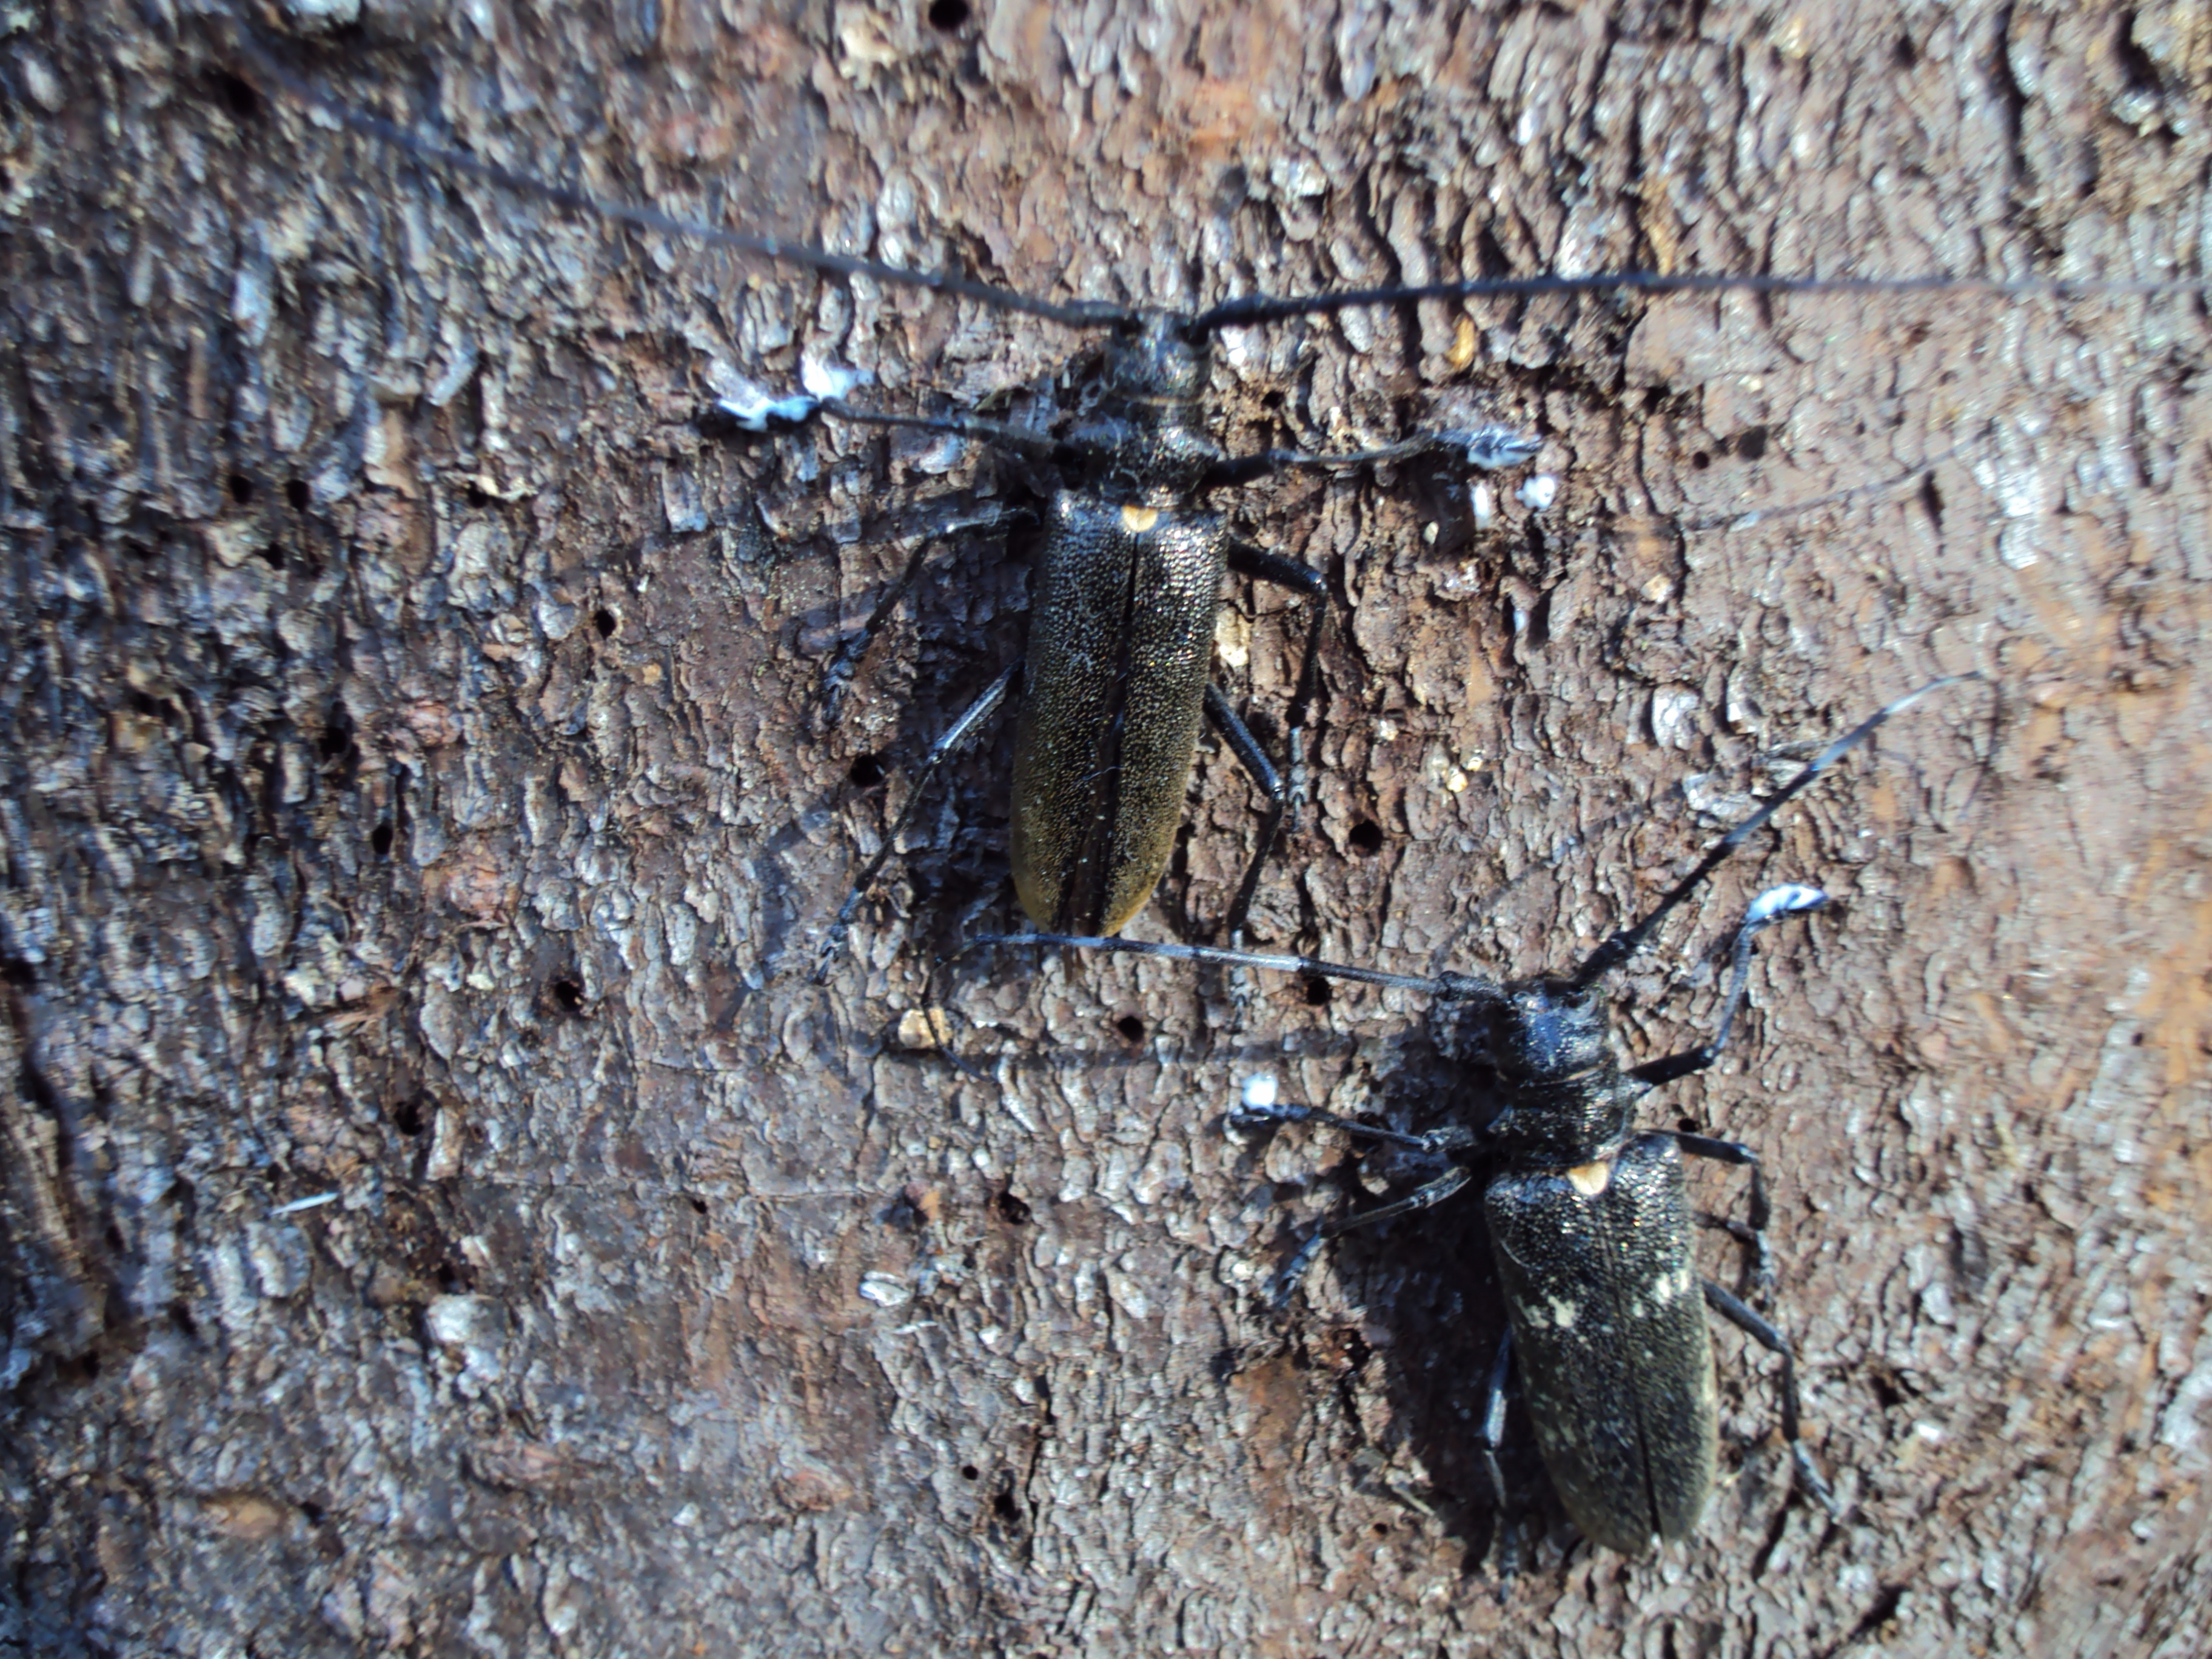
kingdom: Animalia
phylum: Arthropoda
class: Insecta
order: Coleoptera
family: Cerambycidae
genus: Monochamus
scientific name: Monochamus urussovii
